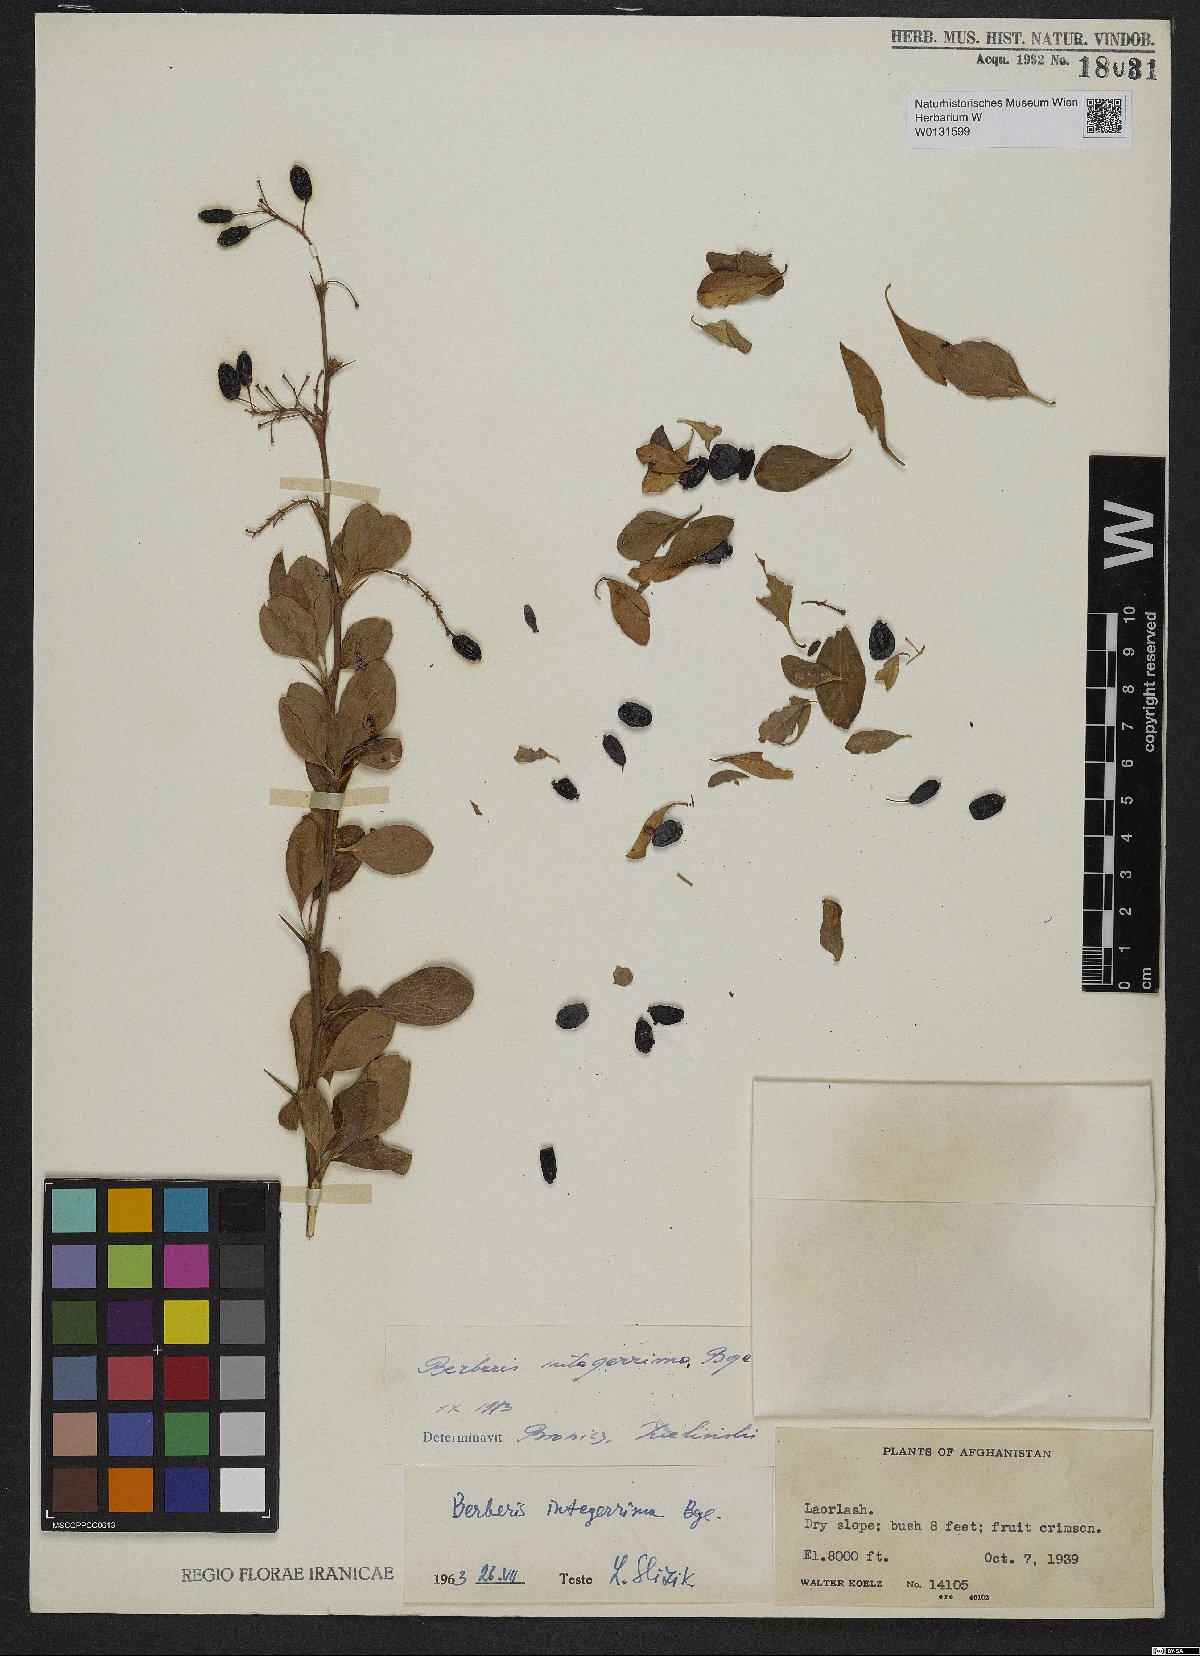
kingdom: Plantae
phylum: Tracheophyta
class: Magnoliopsida
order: Ranunculales
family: Berberidaceae
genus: Berberis
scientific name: Berberis integerrima
